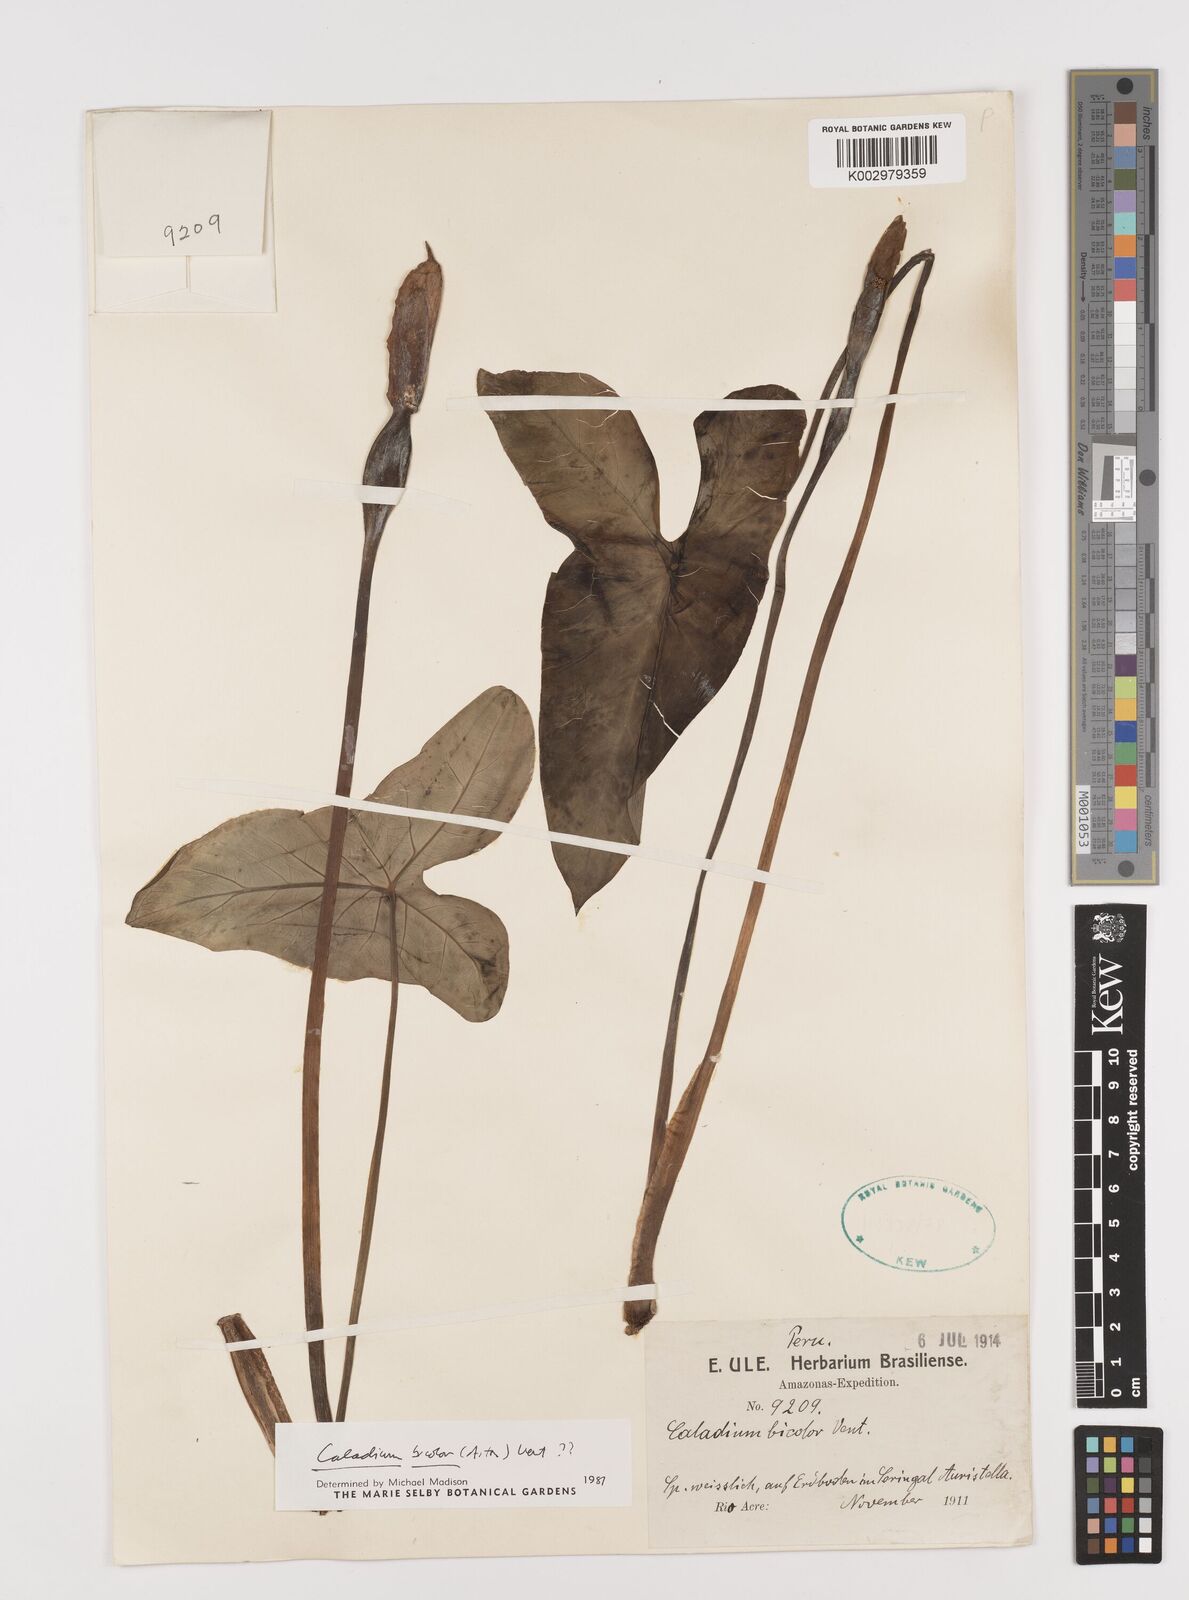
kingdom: Plantae
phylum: Tracheophyta
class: Liliopsida
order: Alismatales
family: Araceae
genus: Caladium
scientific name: Caladium bicolor
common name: Artist's pallet
